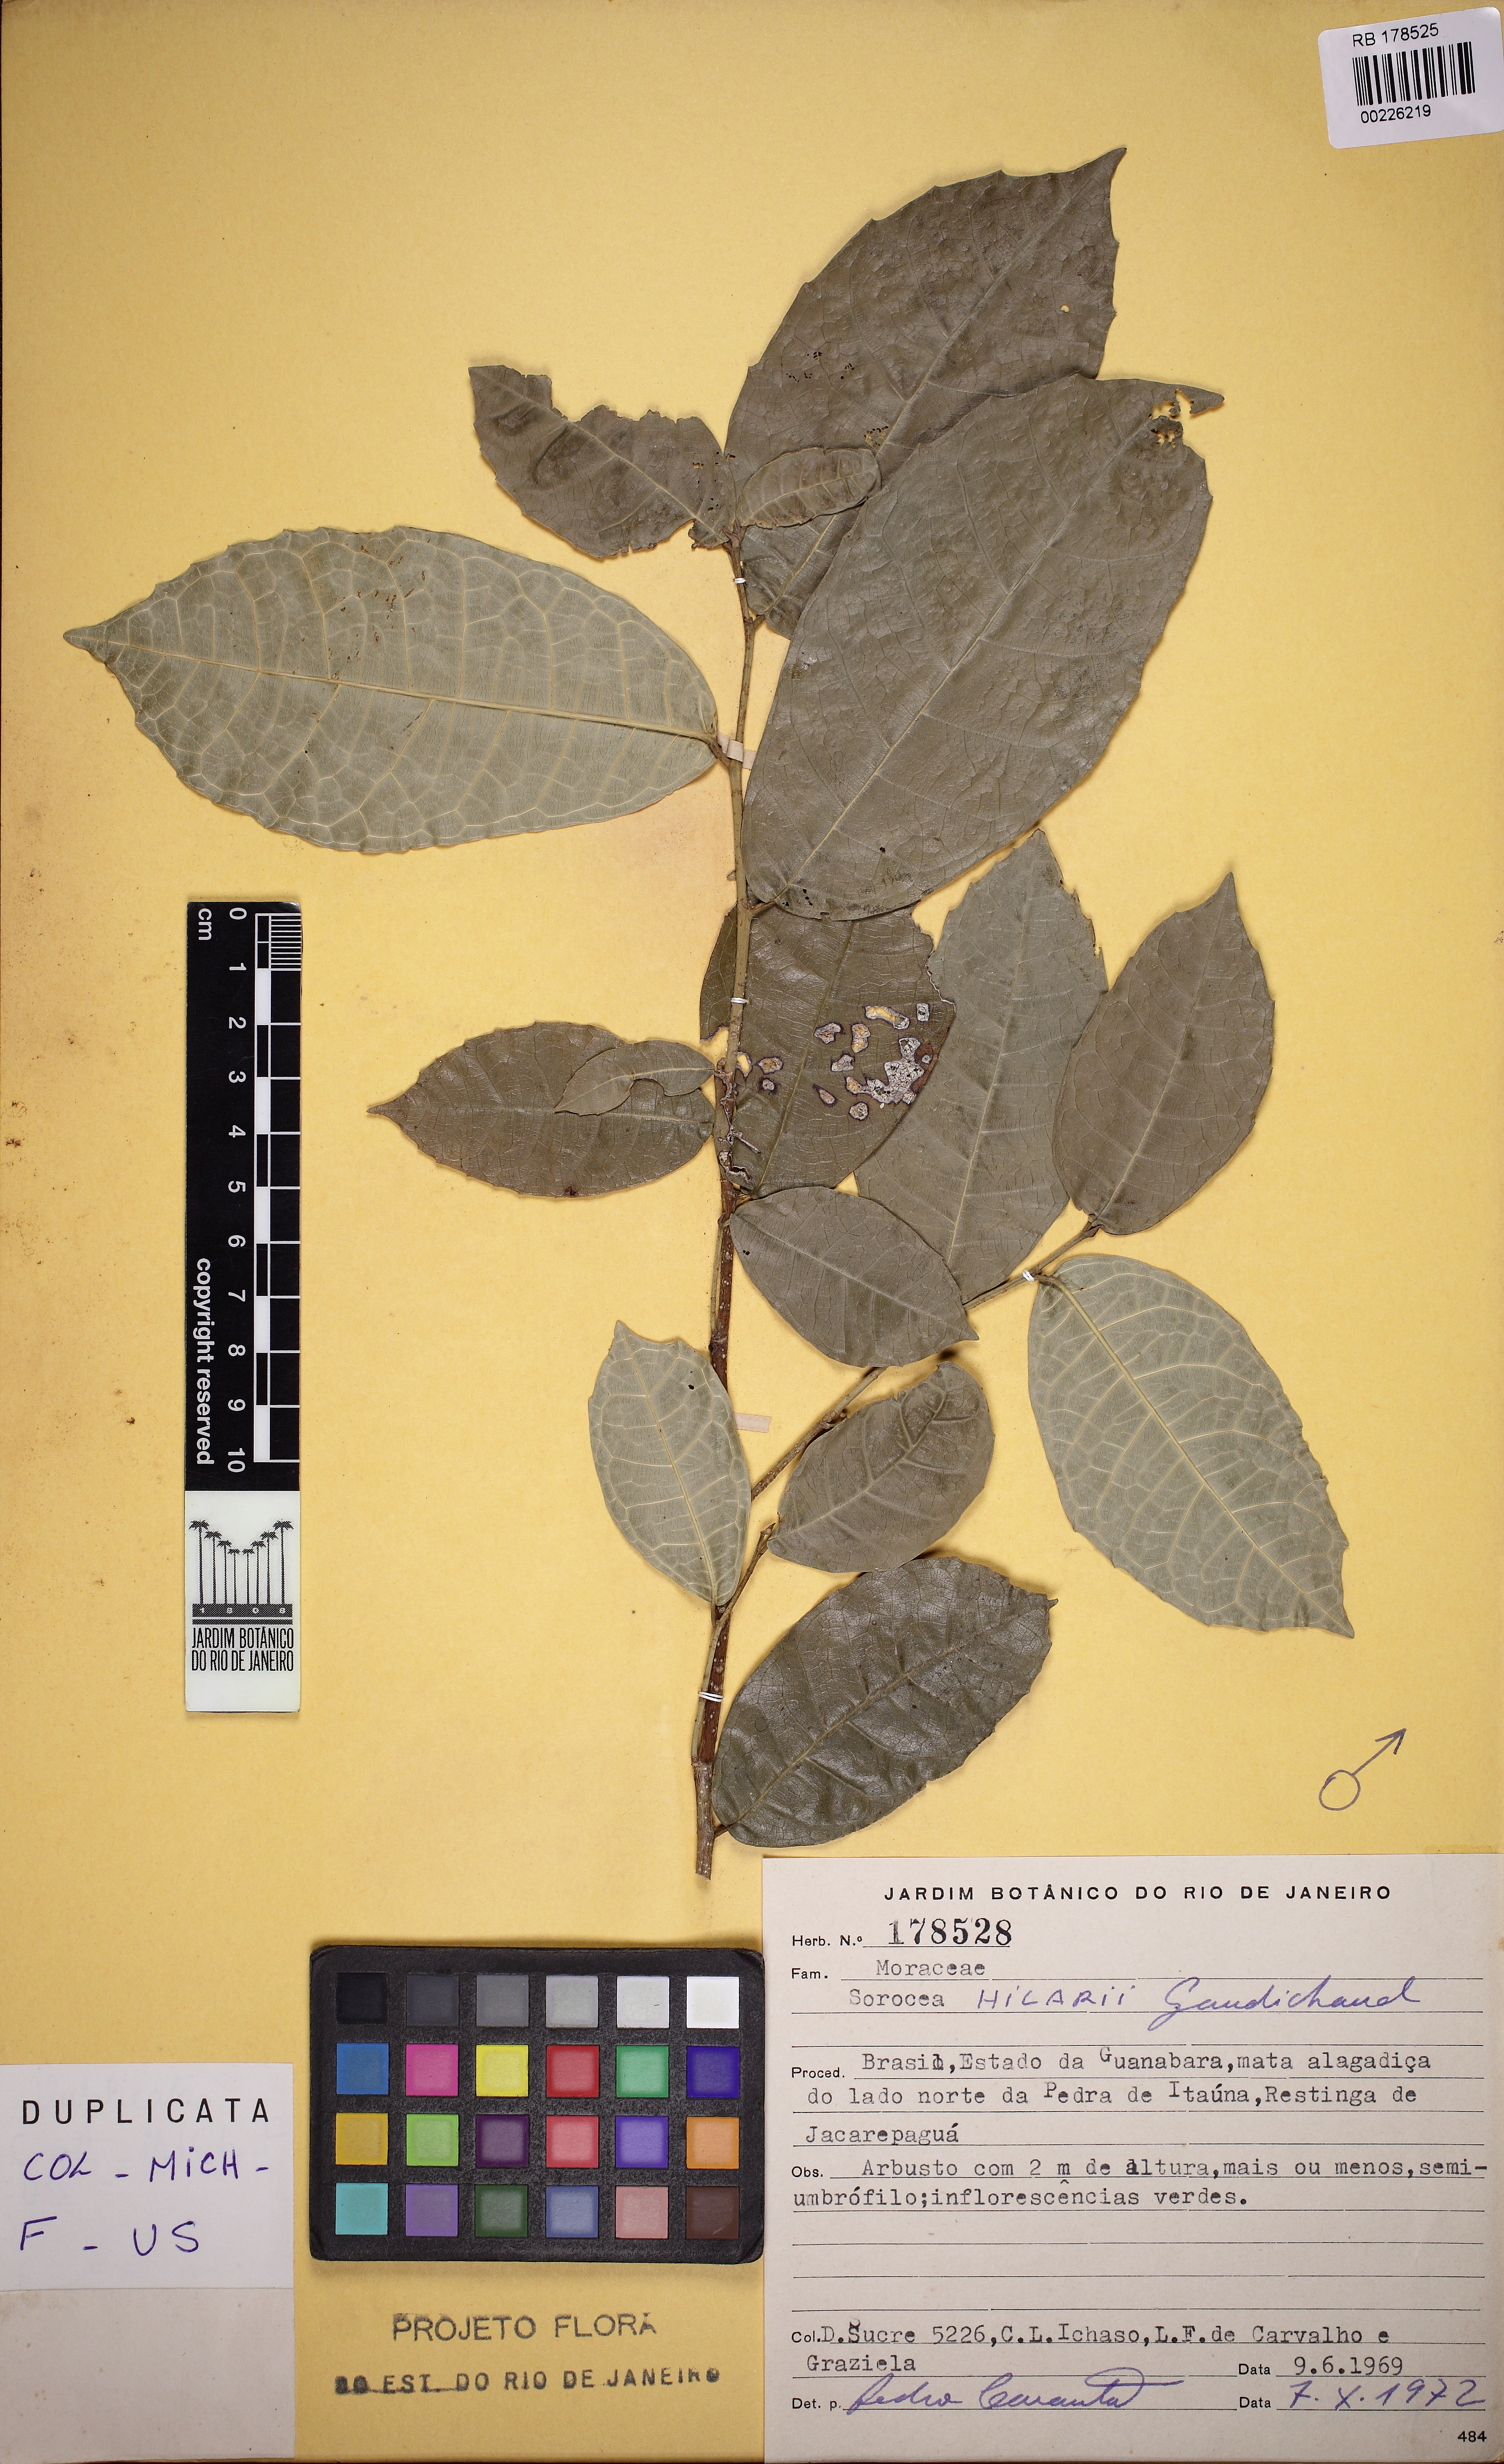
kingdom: Plantae
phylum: Tracheophyta
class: Magnoliopsida
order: Rosales
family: Moraceae
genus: Sorocea
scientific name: Sorocea hilarii
